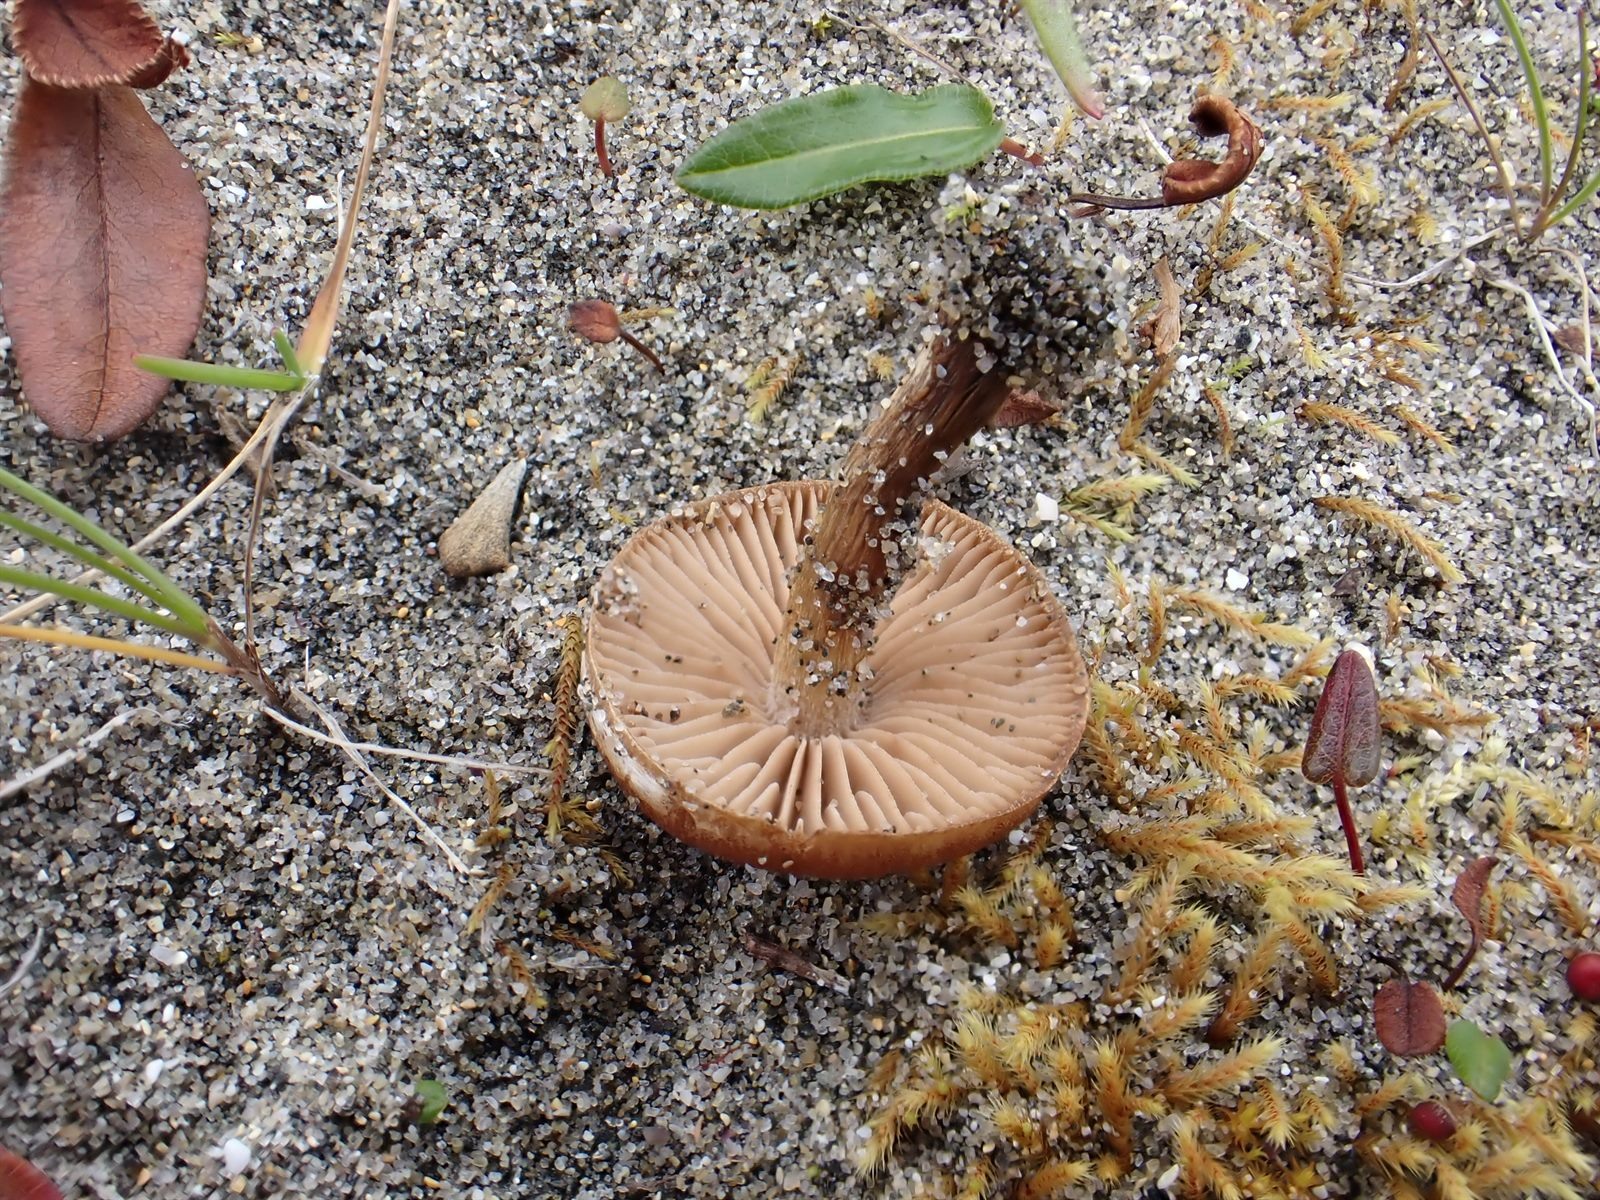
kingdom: Fungi
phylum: Basidiomycota
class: Agaricomycetes
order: Agaricales
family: Hymenogastraceae
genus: Hebeloma
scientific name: Hebeloma dunense
